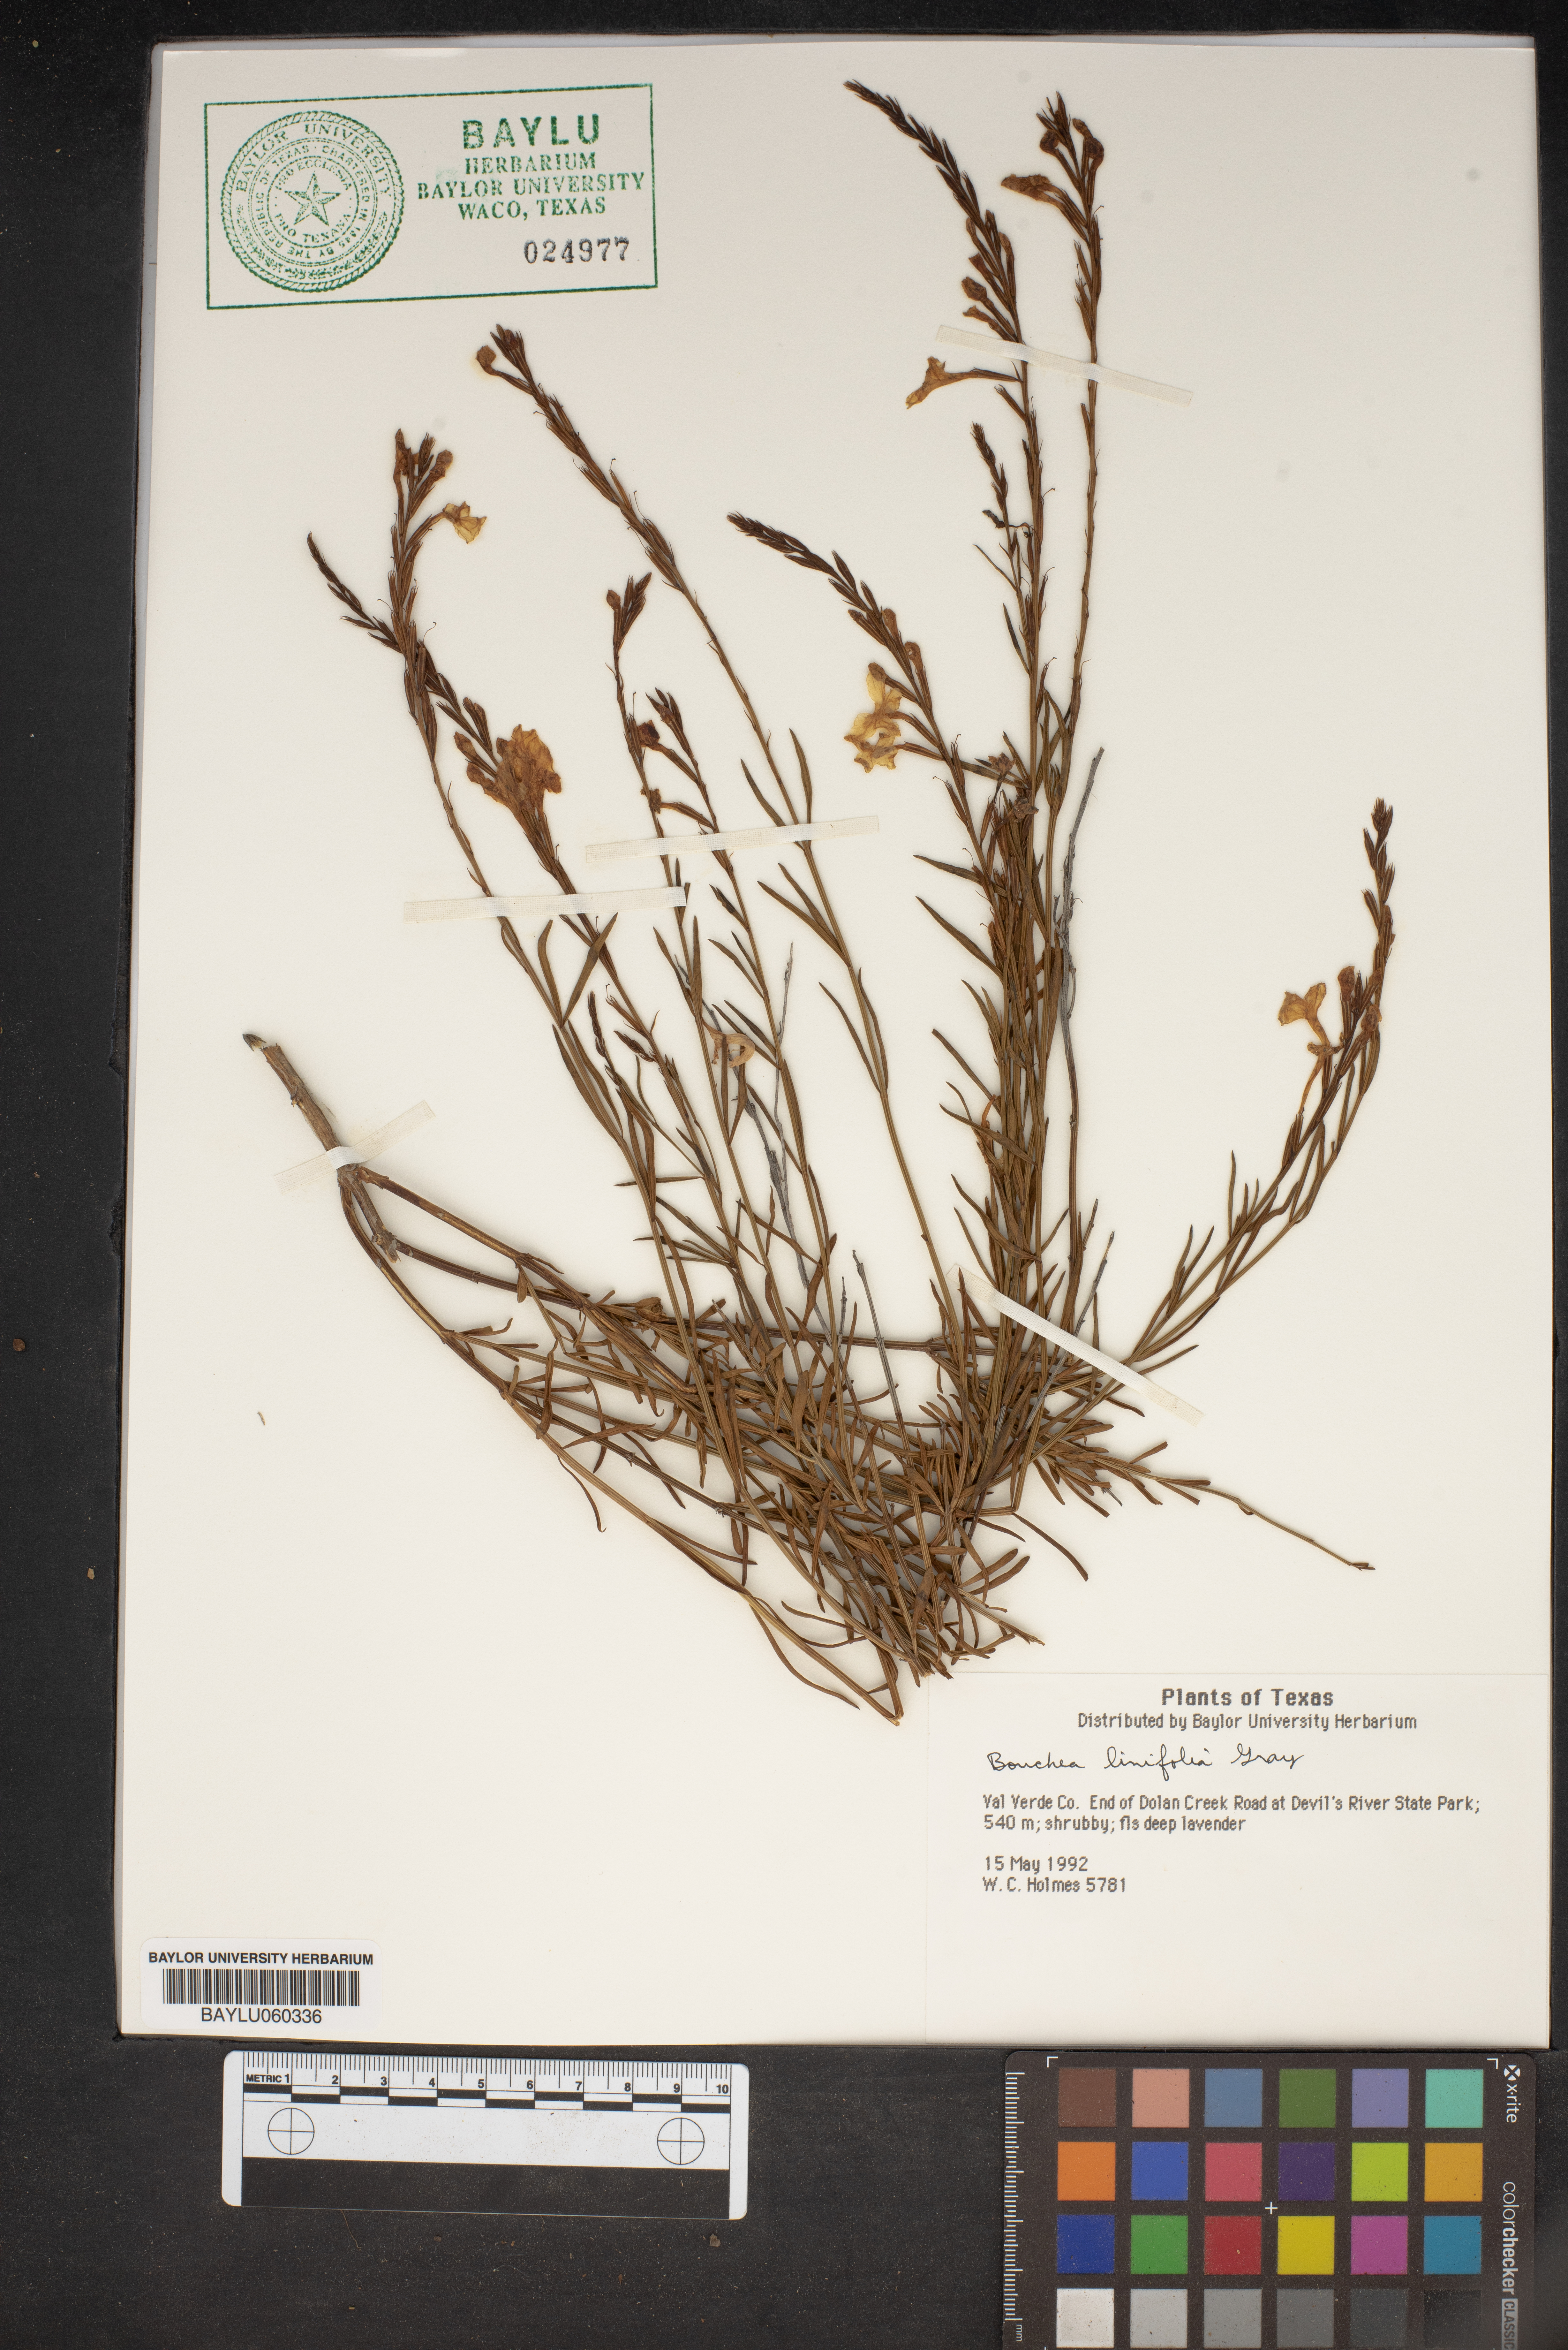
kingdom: Plantae
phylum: Tracheophyta
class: Magnoliopsida
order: Lamiales
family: Verbenaceae
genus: Bouchea
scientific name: Bouchea linifolia
